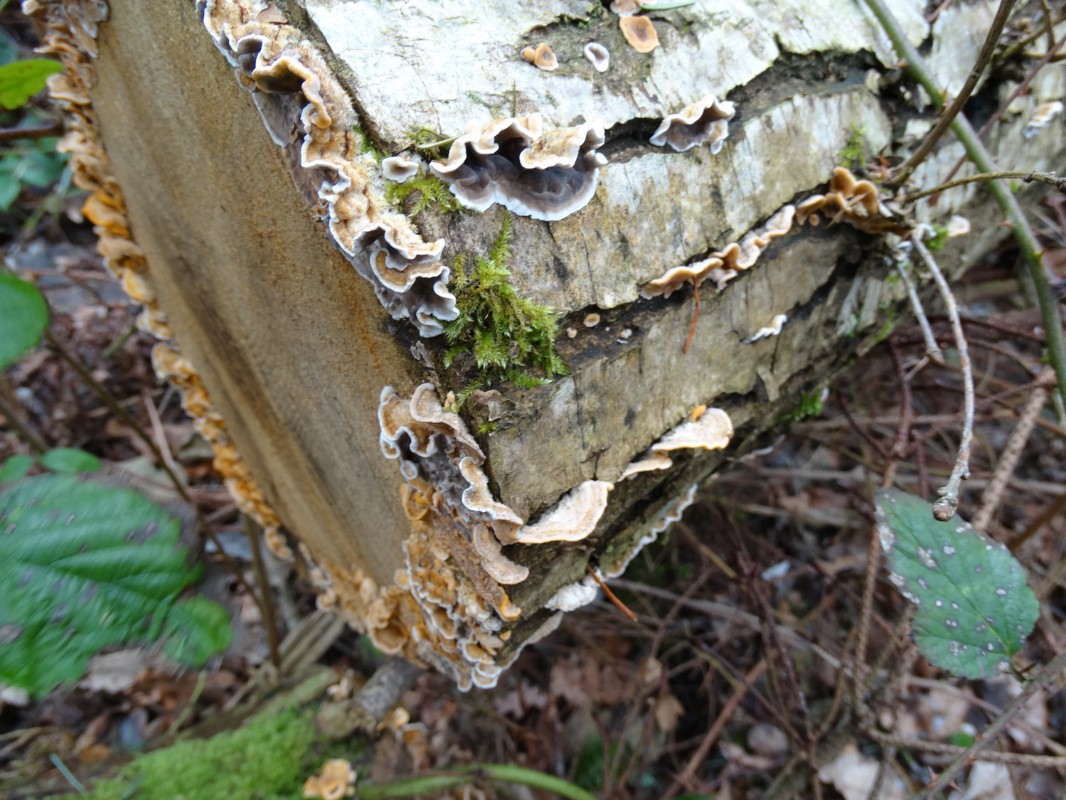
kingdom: Fungi
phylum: Basidiomycota
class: Agaricomycetes
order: Russulales
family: Stereaceae
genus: Stereum
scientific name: Stereum hirsutum
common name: håret lædersvamp
